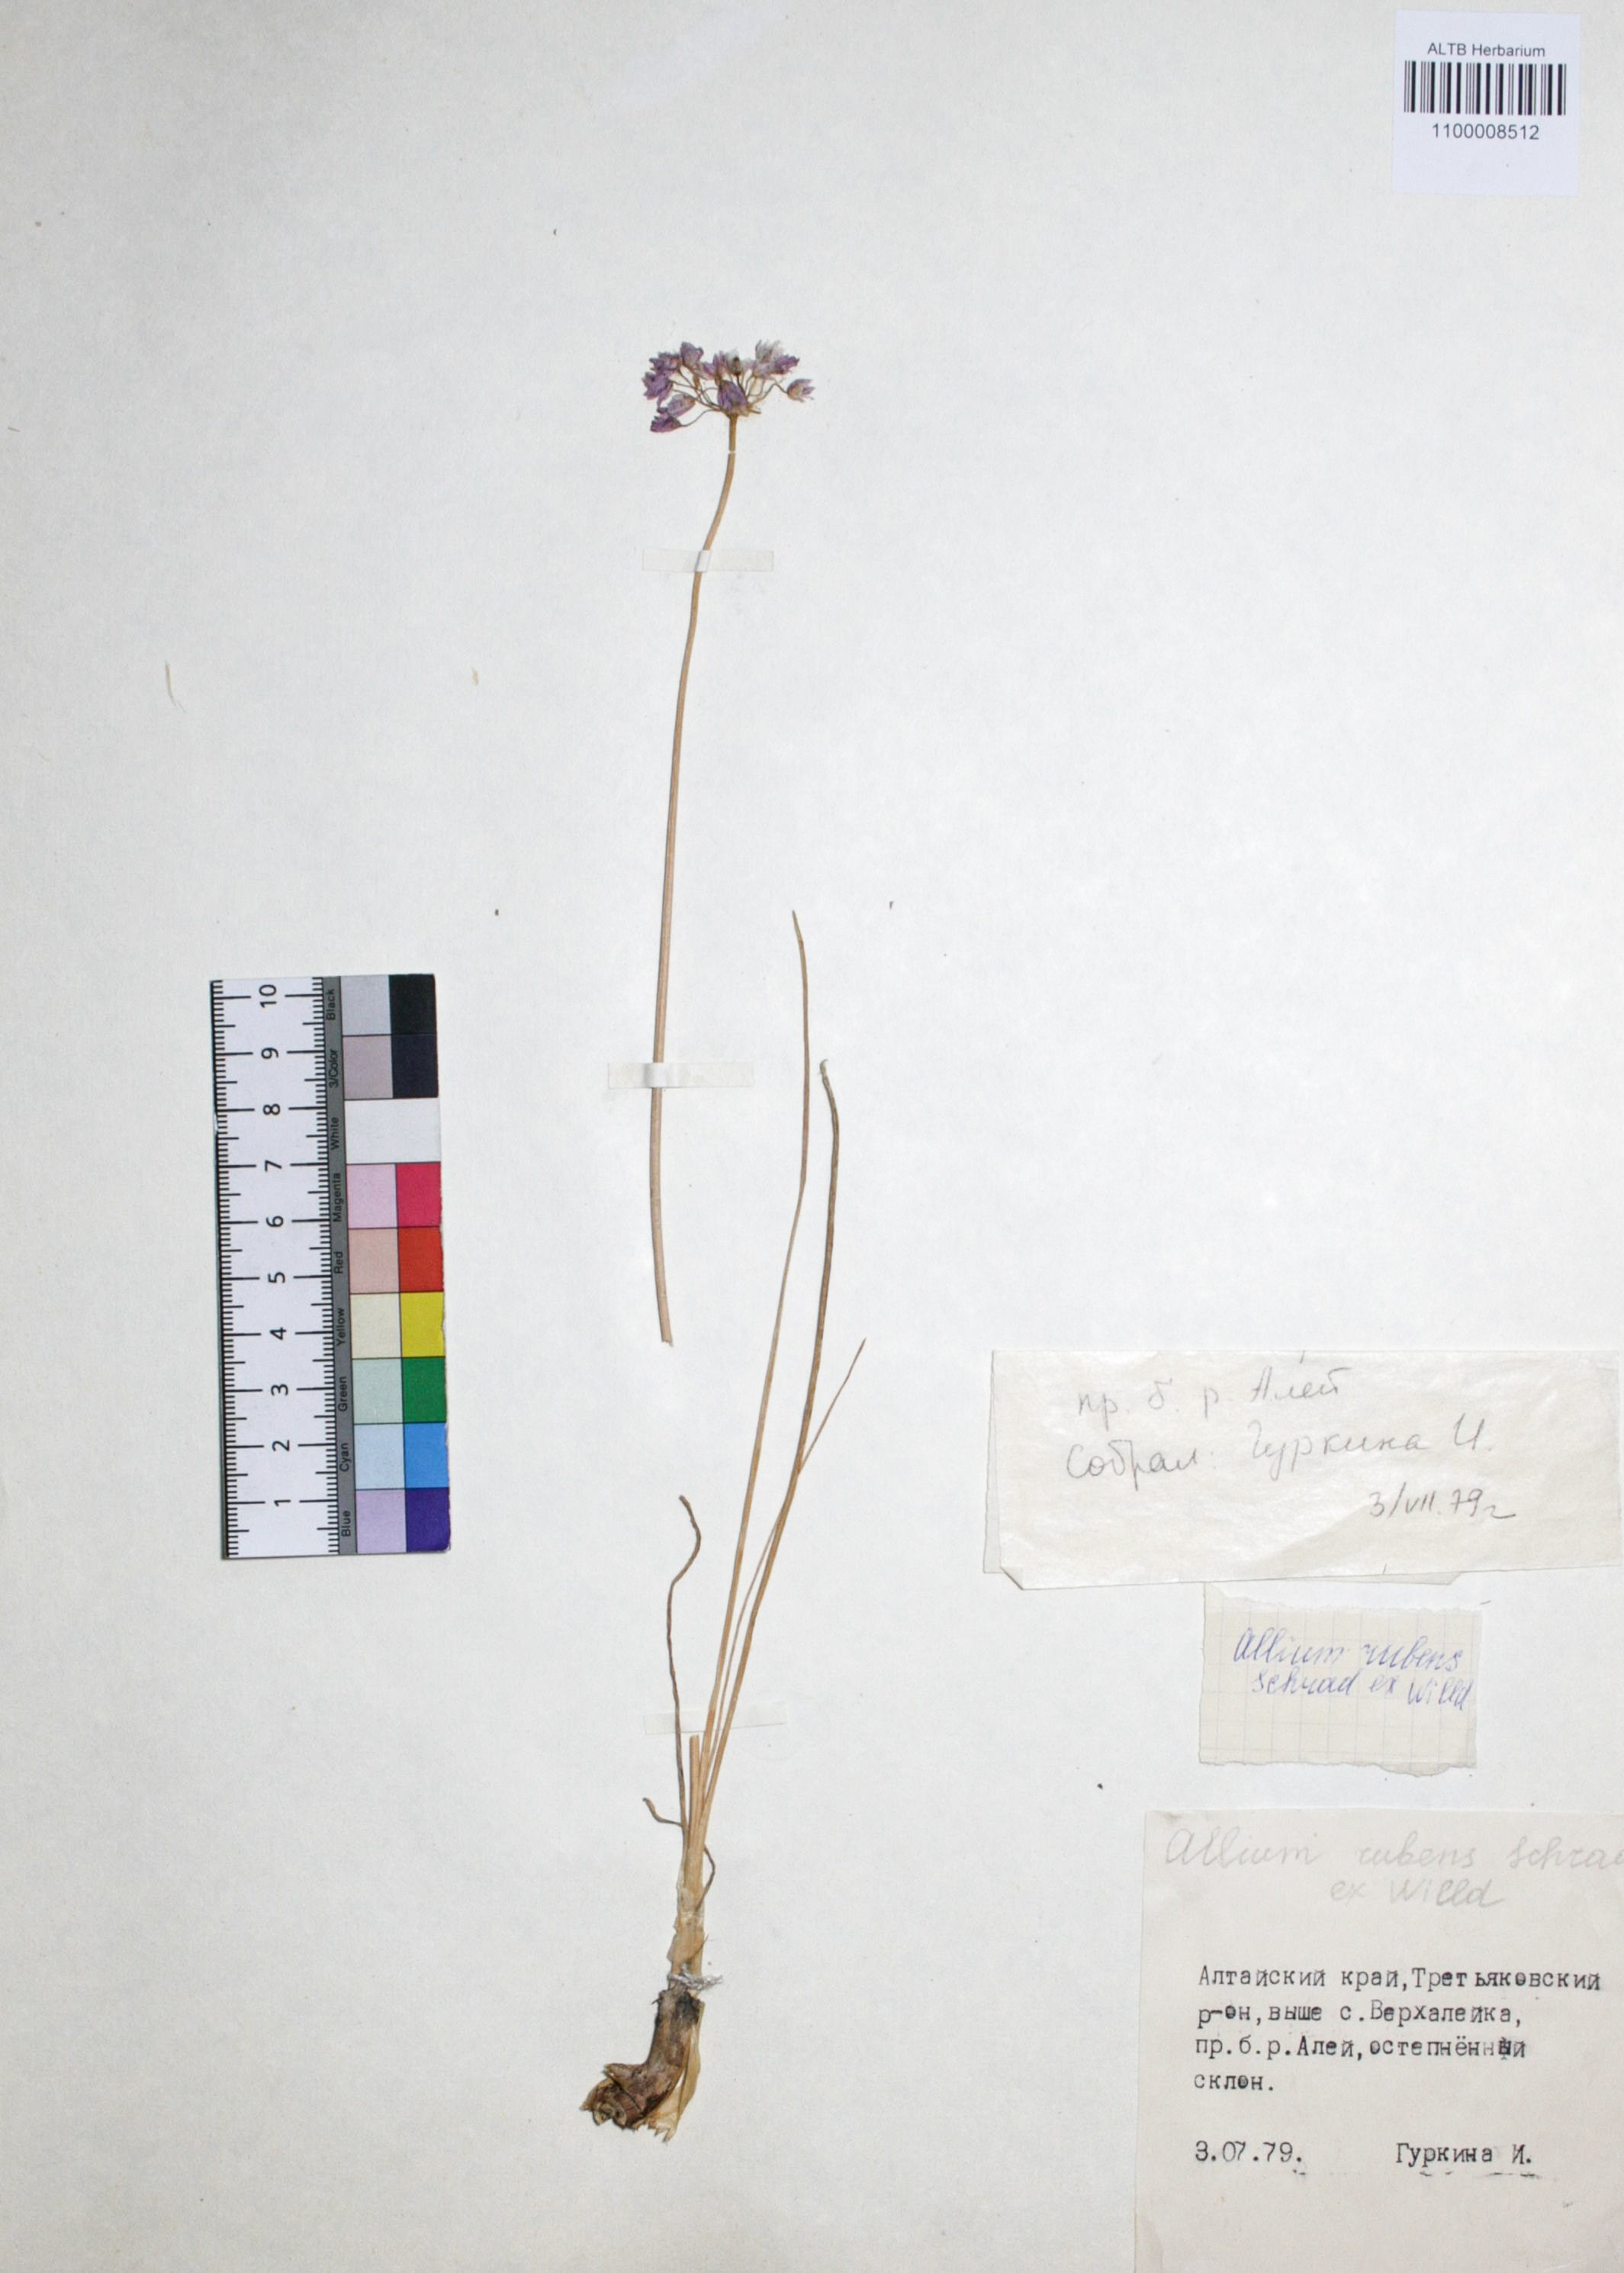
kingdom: Plantae
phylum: Tracheophyta
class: Liliopsida
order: Asparagales
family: Amaryllidaceae
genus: Allium
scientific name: Allium rubens
